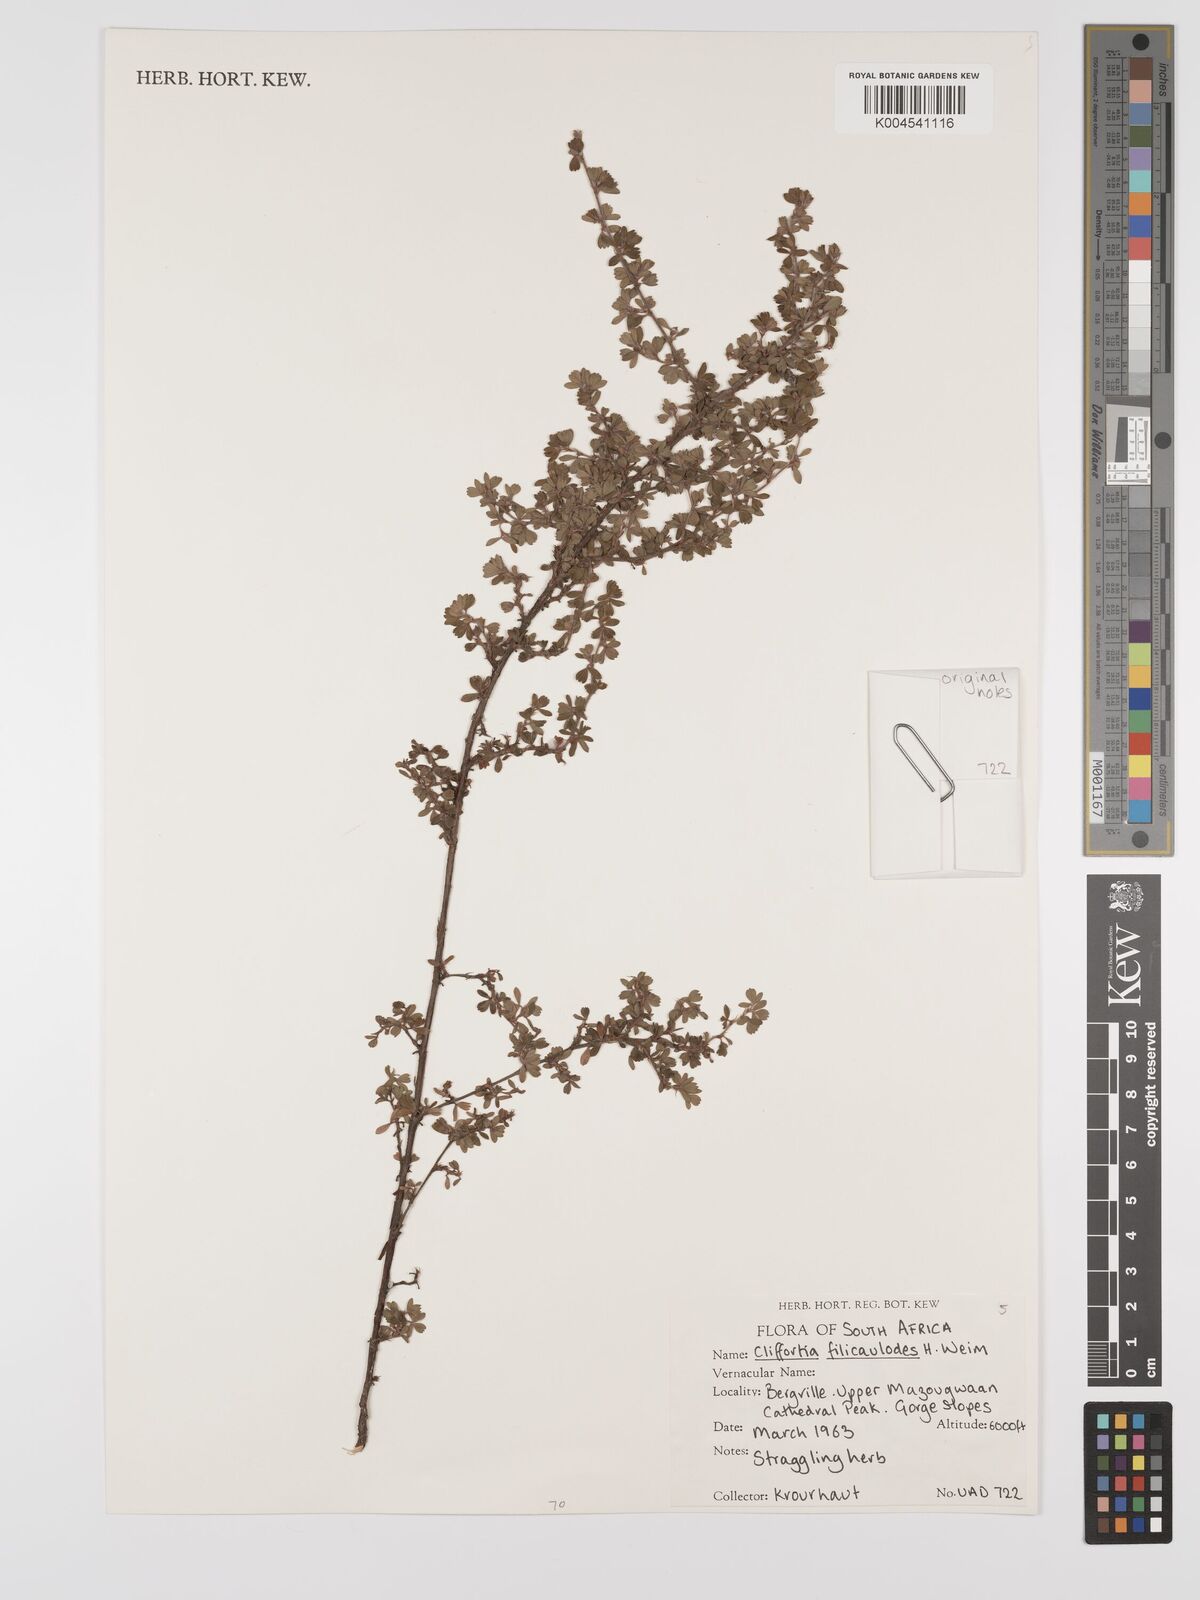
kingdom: Plantae
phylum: Tracheophyta
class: Magnoliopsida
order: Rosales
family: Rosaceae
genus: Cliffortia
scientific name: Cliffortia filicauloides
